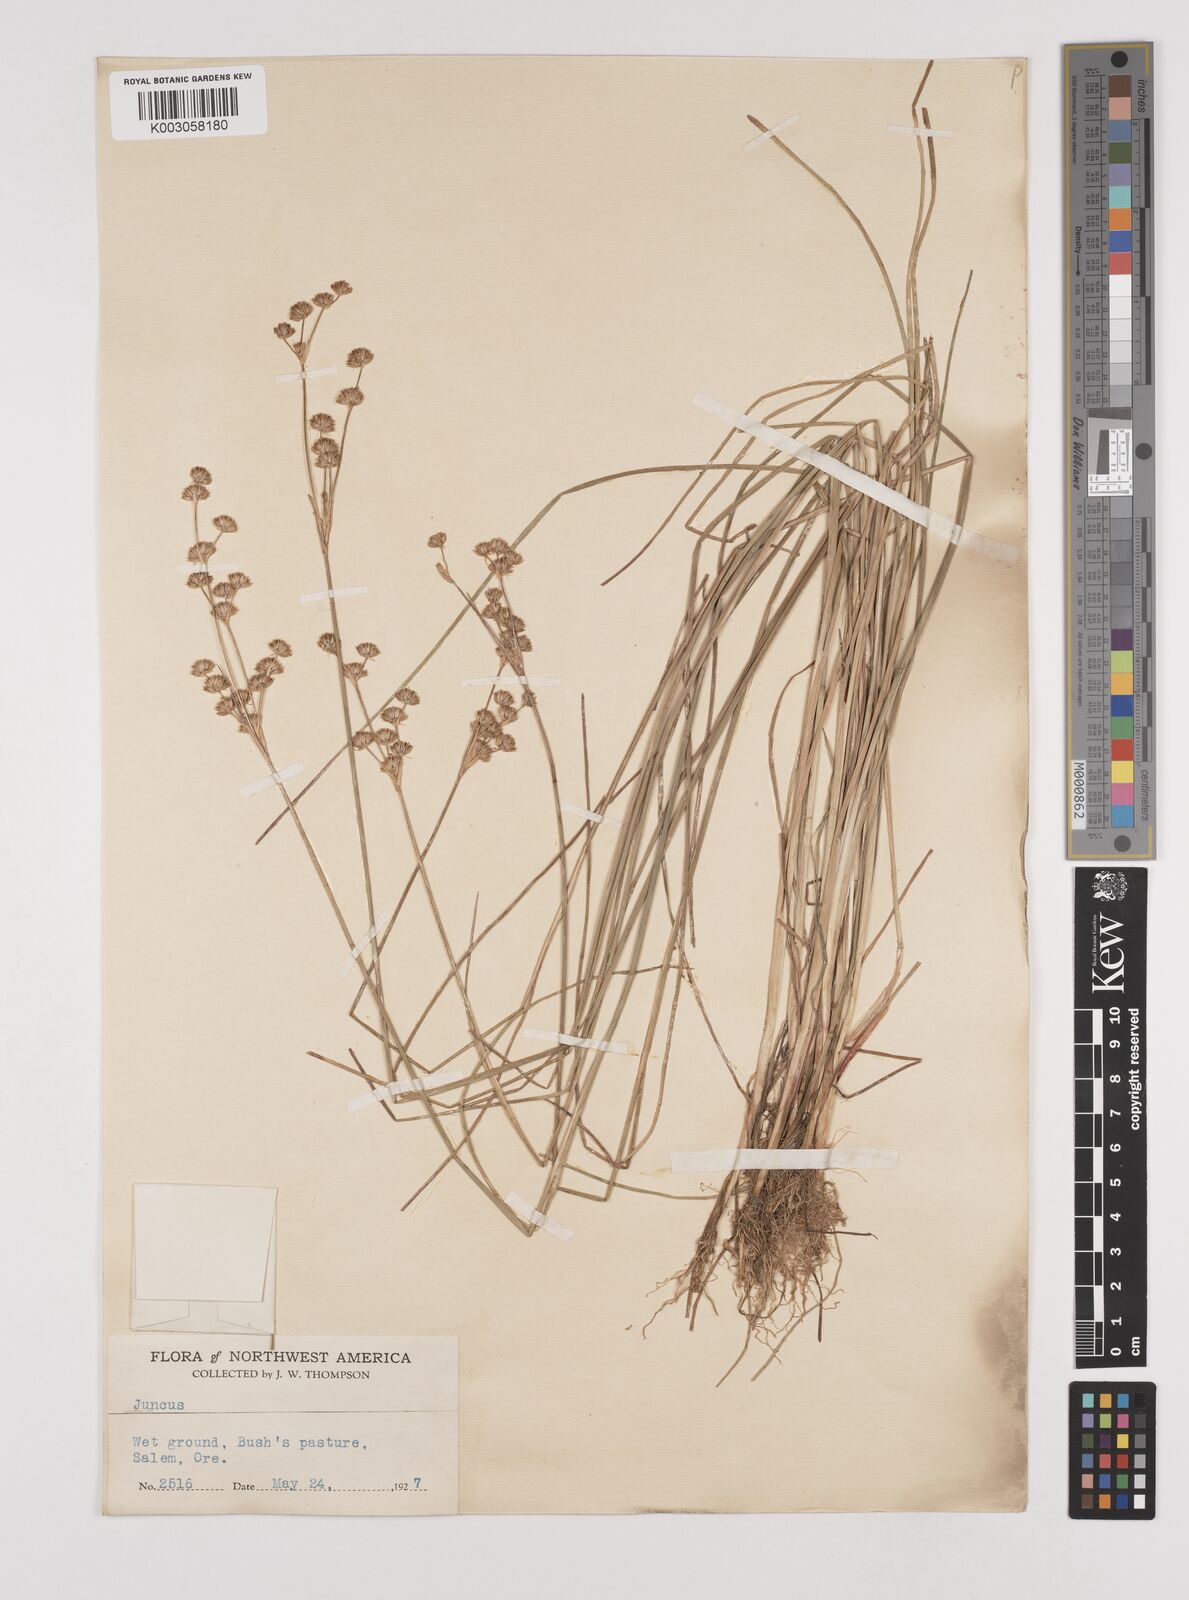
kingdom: Plantae
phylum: Tracheophyta
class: Liliopsida
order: Poales
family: Juncaceae
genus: Juncus
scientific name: Juncus
